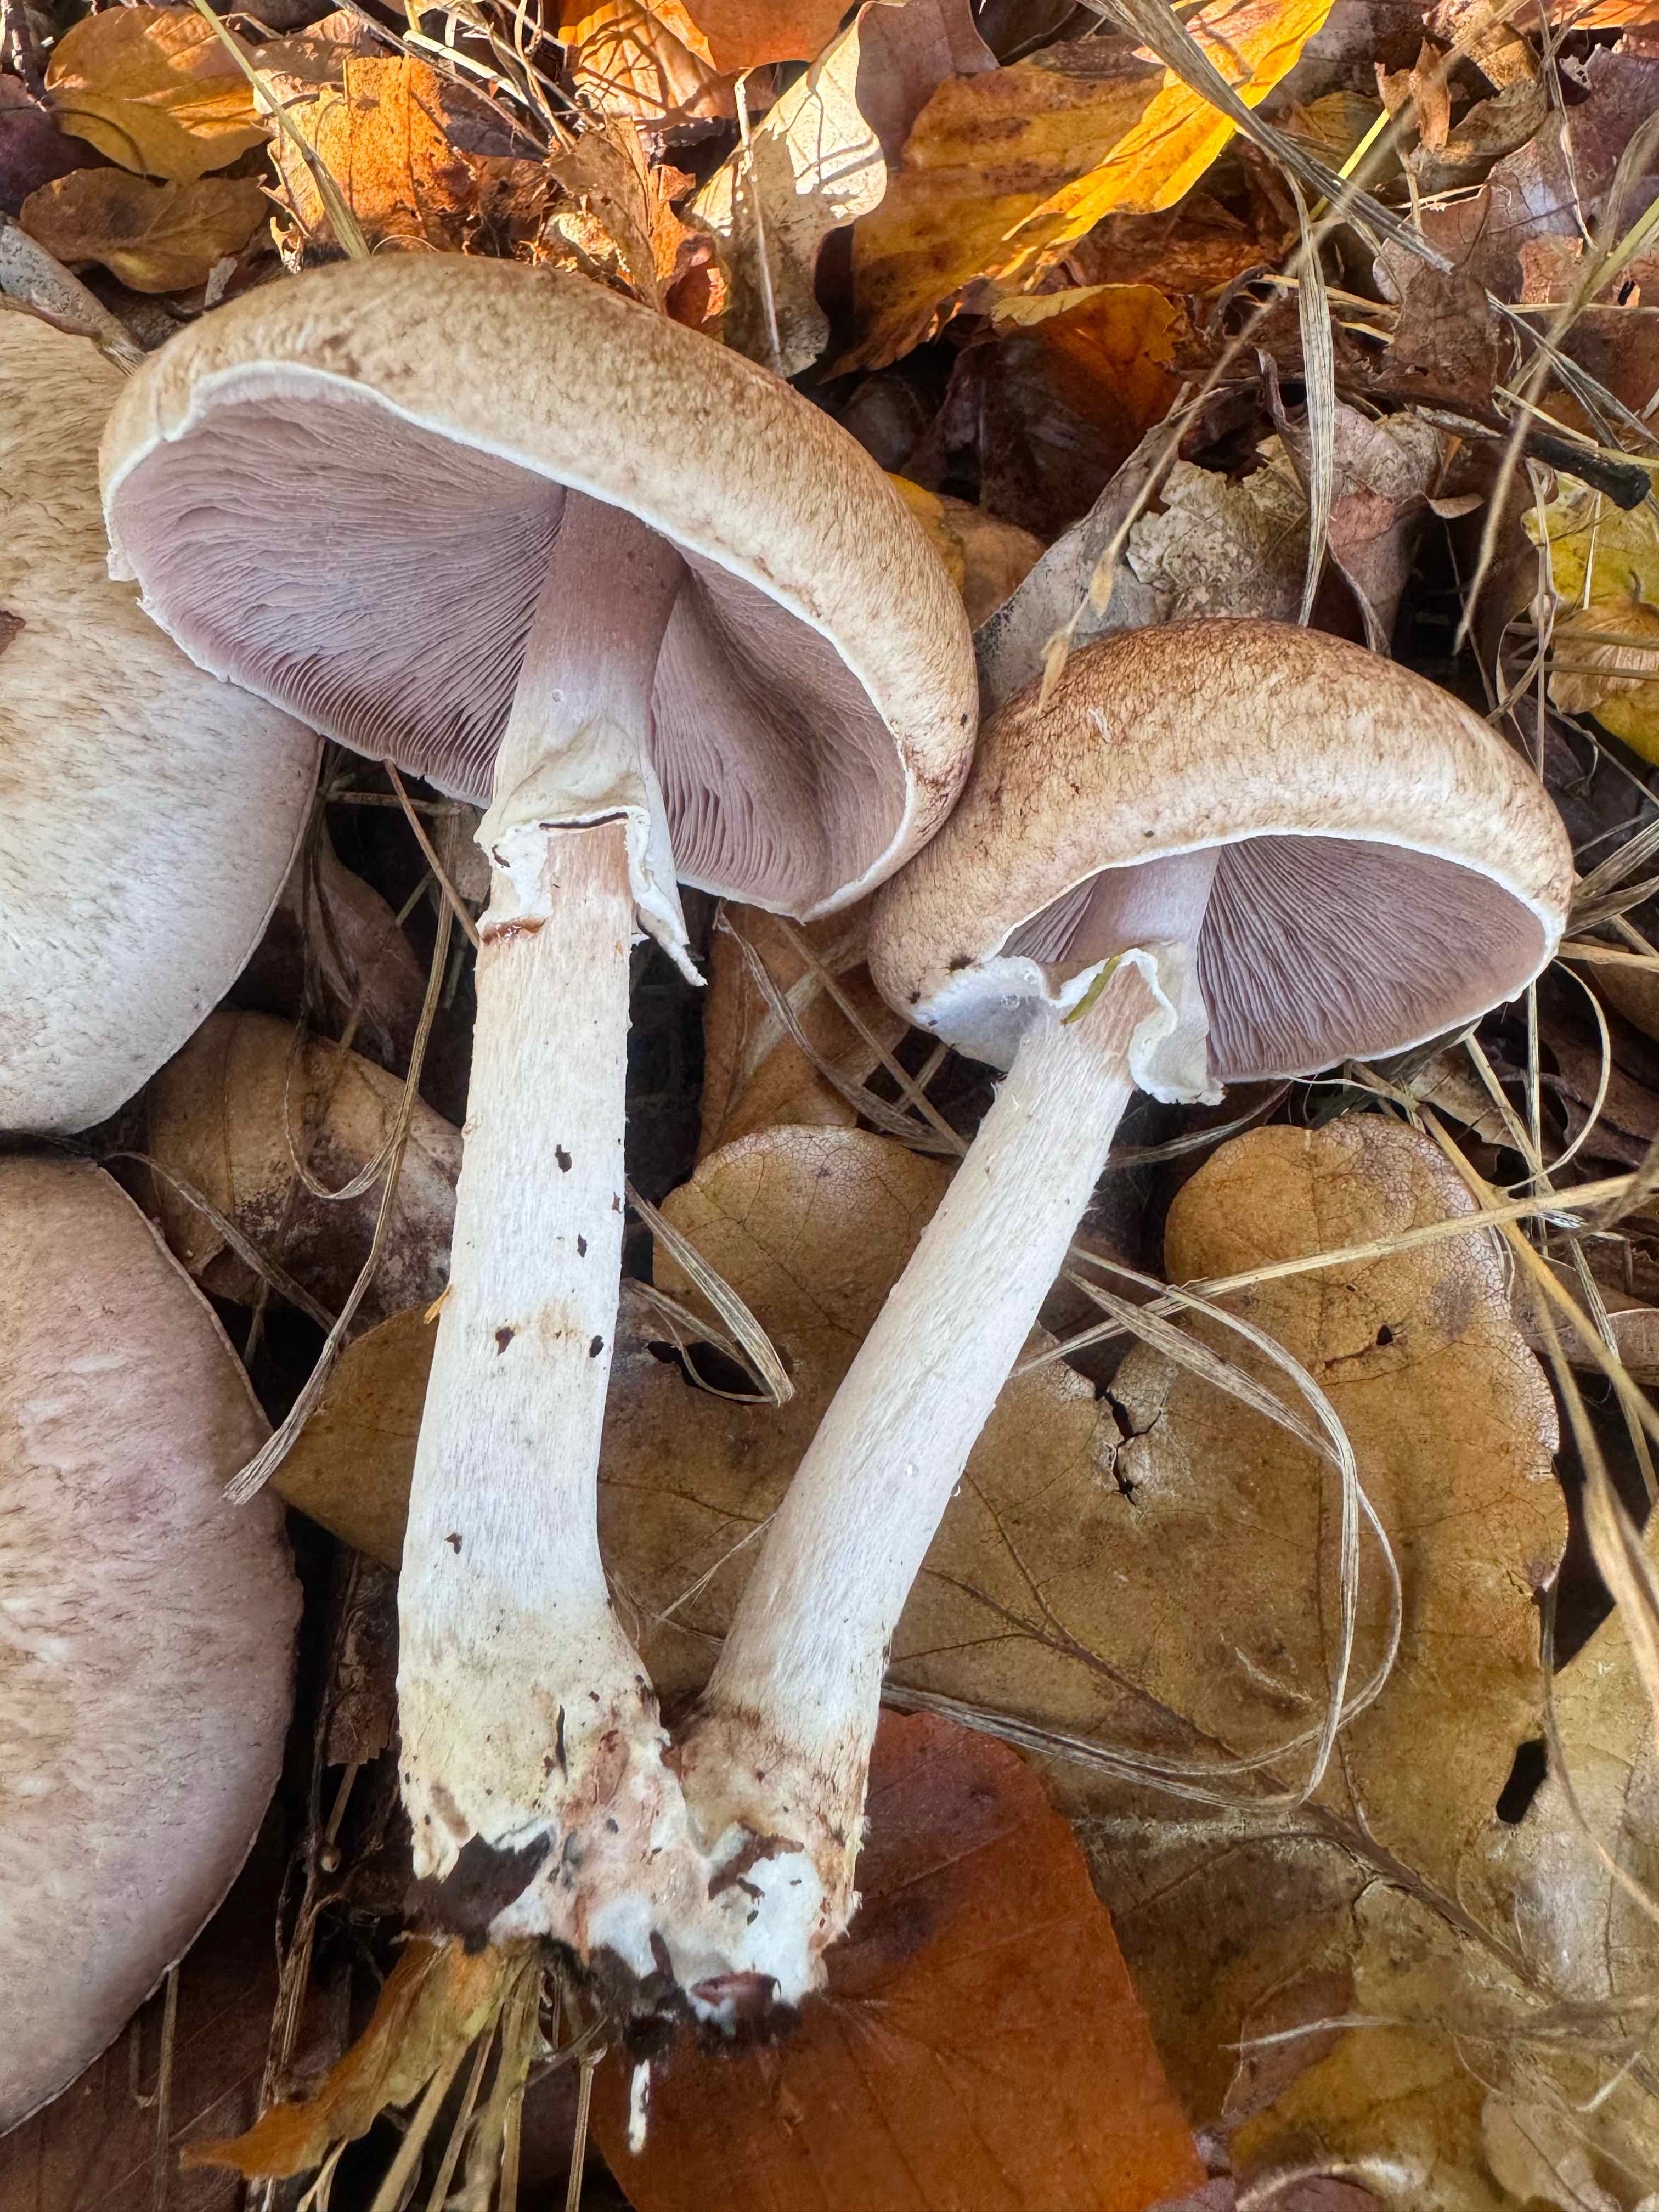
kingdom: Fungi
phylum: Basidiomycota
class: Agaricomycetes
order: Agaricales
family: Agaricaceae
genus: Agaricus
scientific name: Agaricus impudicus
